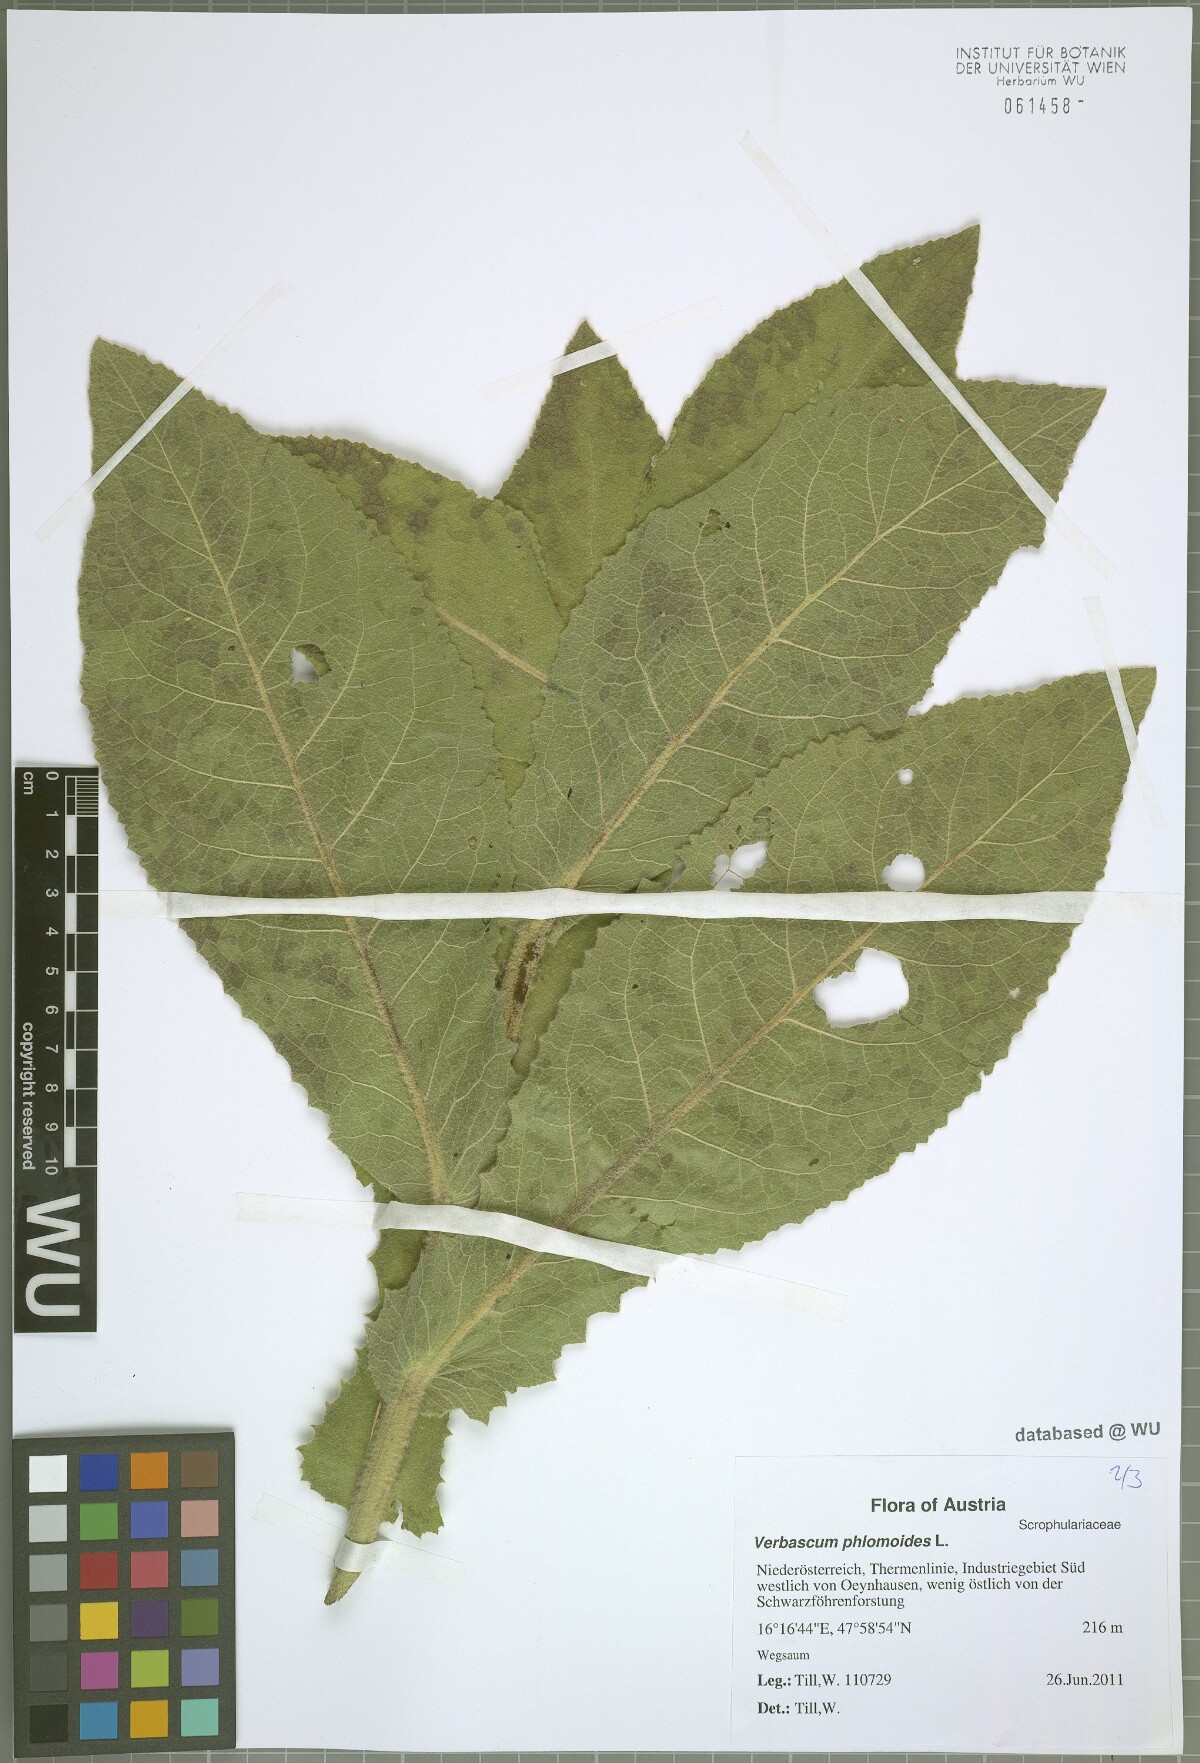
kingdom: Plantae
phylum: Tracheophyta
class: Magnoliopsida
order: Lamiales
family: Scrophulariaceae
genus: Verbascum
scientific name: Verbascum phlomoides
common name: Orange mullein
